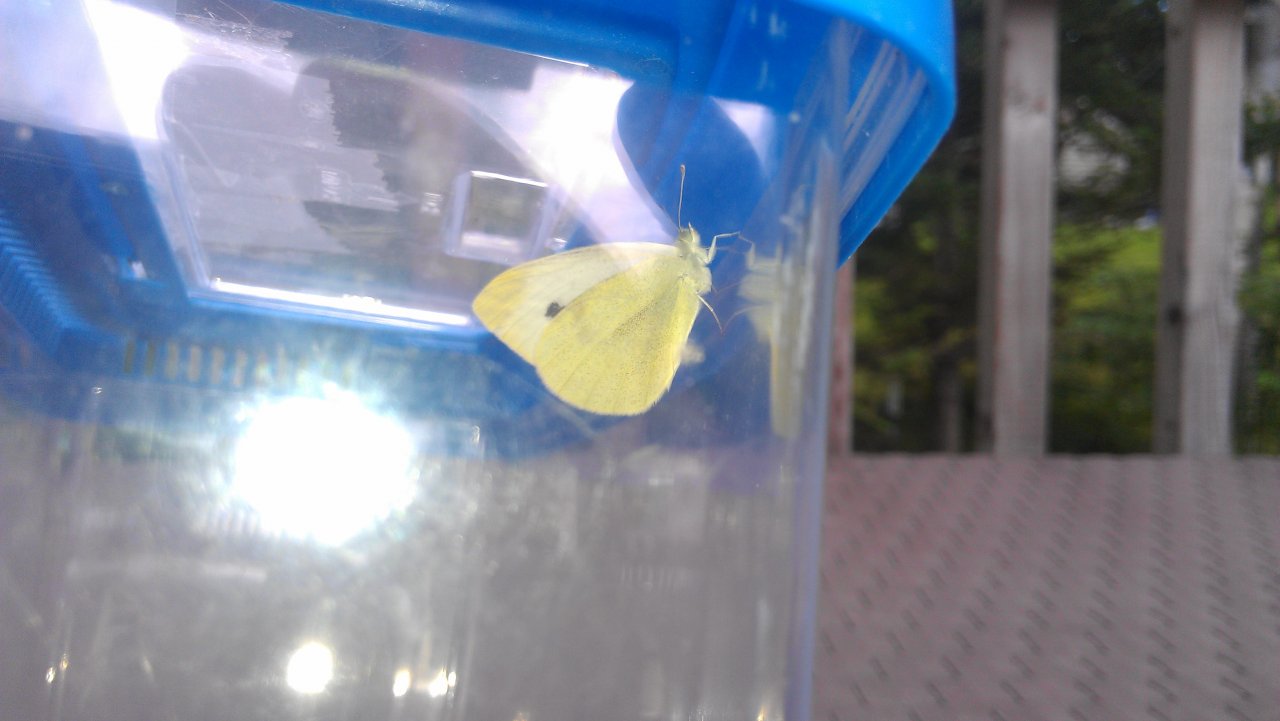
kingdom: Animalia
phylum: Arthropoda
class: Insecta
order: Lepidoptera
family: Pieridae
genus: Pieris
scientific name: Pieris rapae
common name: Cabbage White
